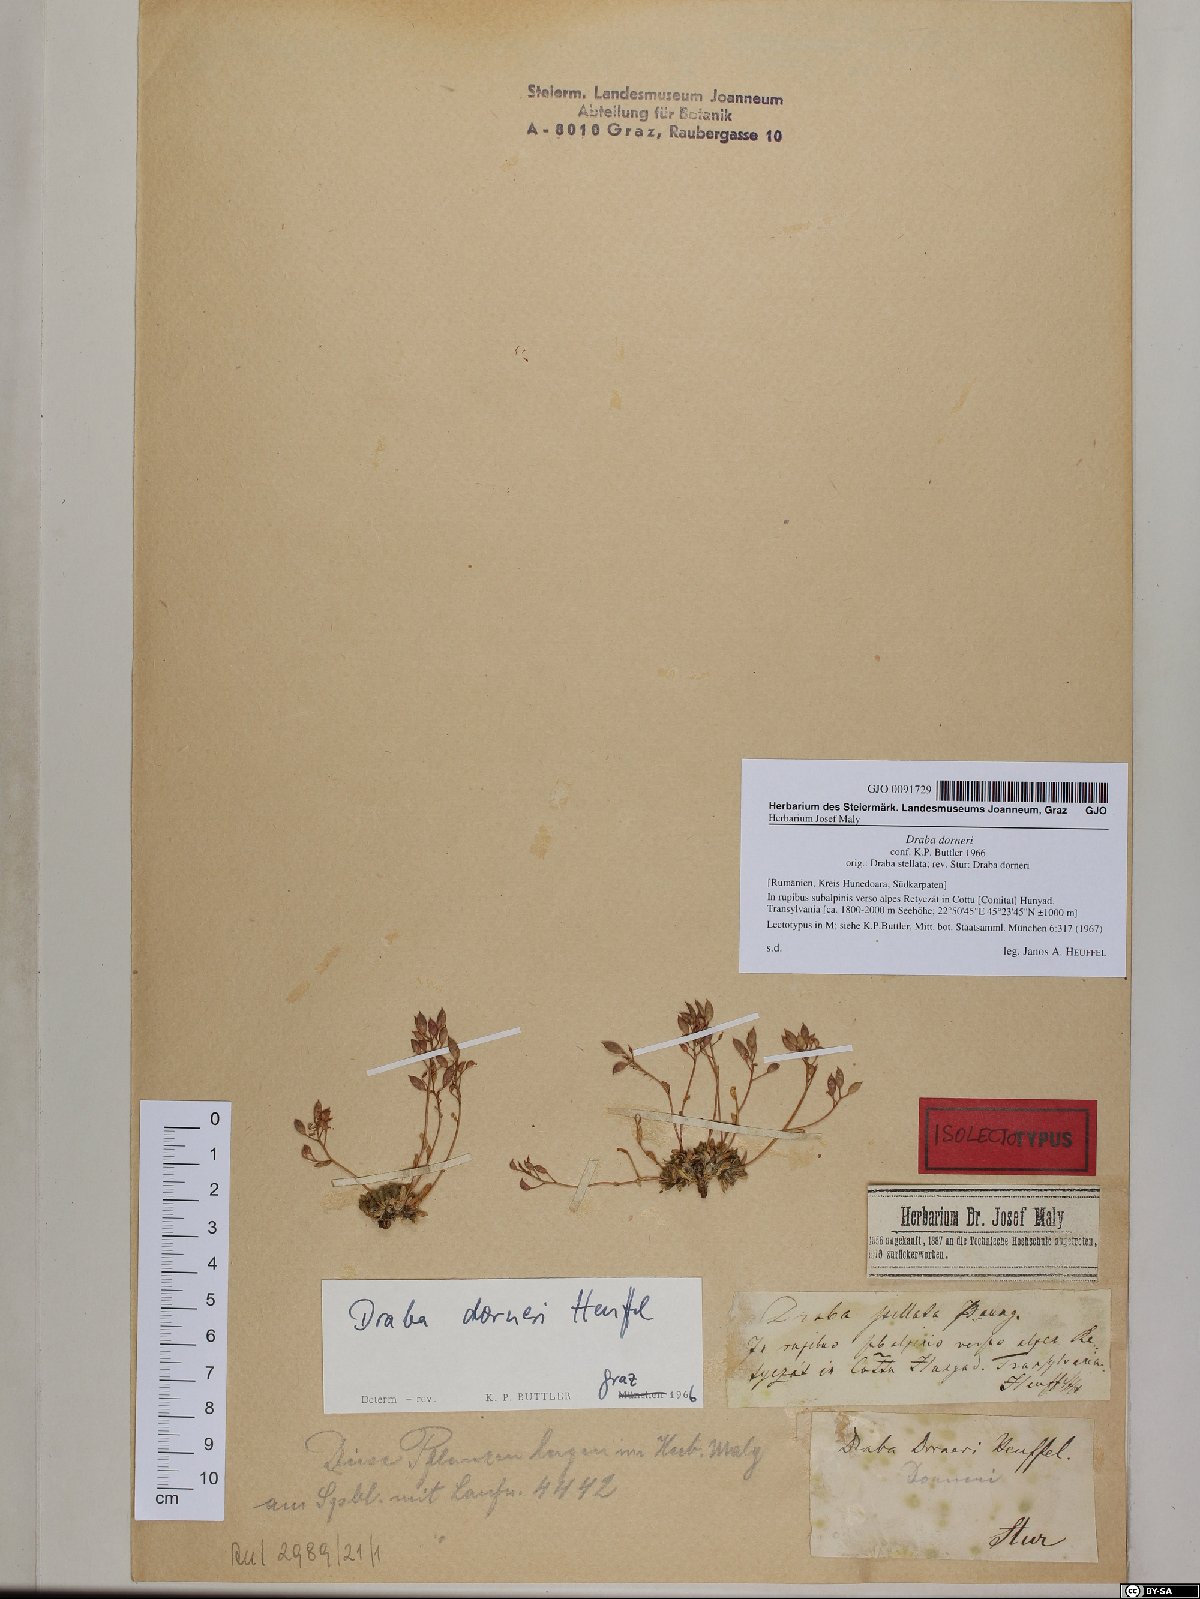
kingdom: Plantae
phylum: Tracheophyta
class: Magnoliopsida
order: Brassicales
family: Brassicaceae
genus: Draba
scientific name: Draba dorneri
